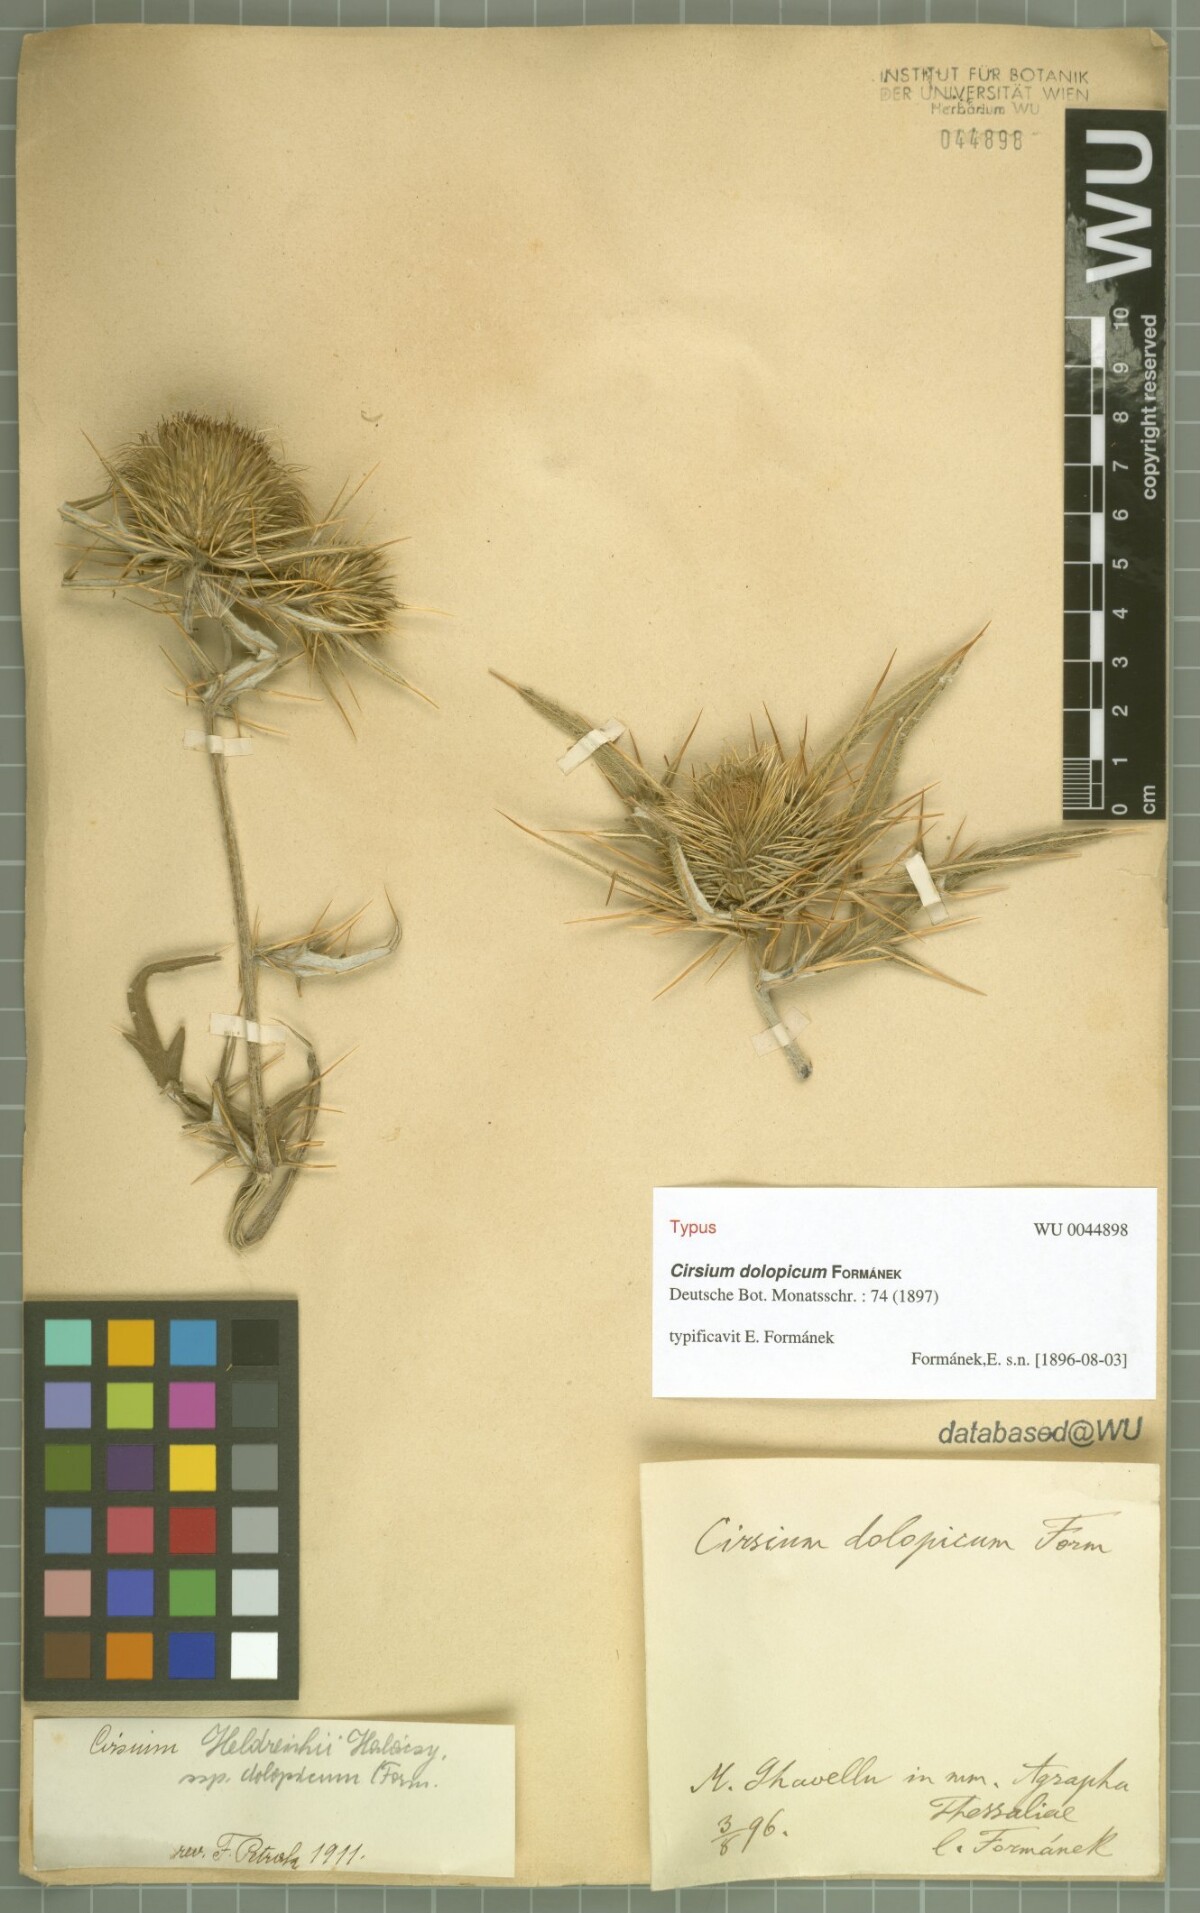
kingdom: Plantae
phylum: Tracheophyta
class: Magnoliopsida
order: Asterales
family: Asteraceae
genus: Cirsium
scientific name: Cirsium dolopicum
